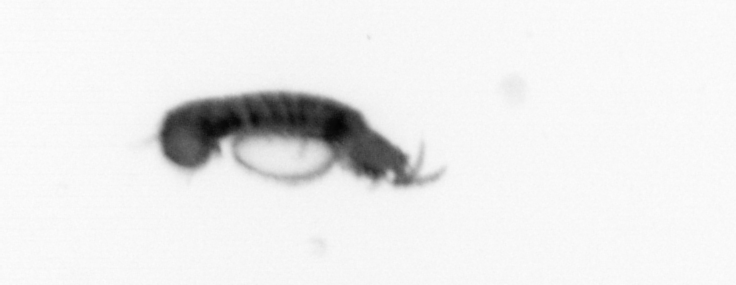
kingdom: Animalia
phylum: Annelida
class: Polychaeta
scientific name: Polychaeta
